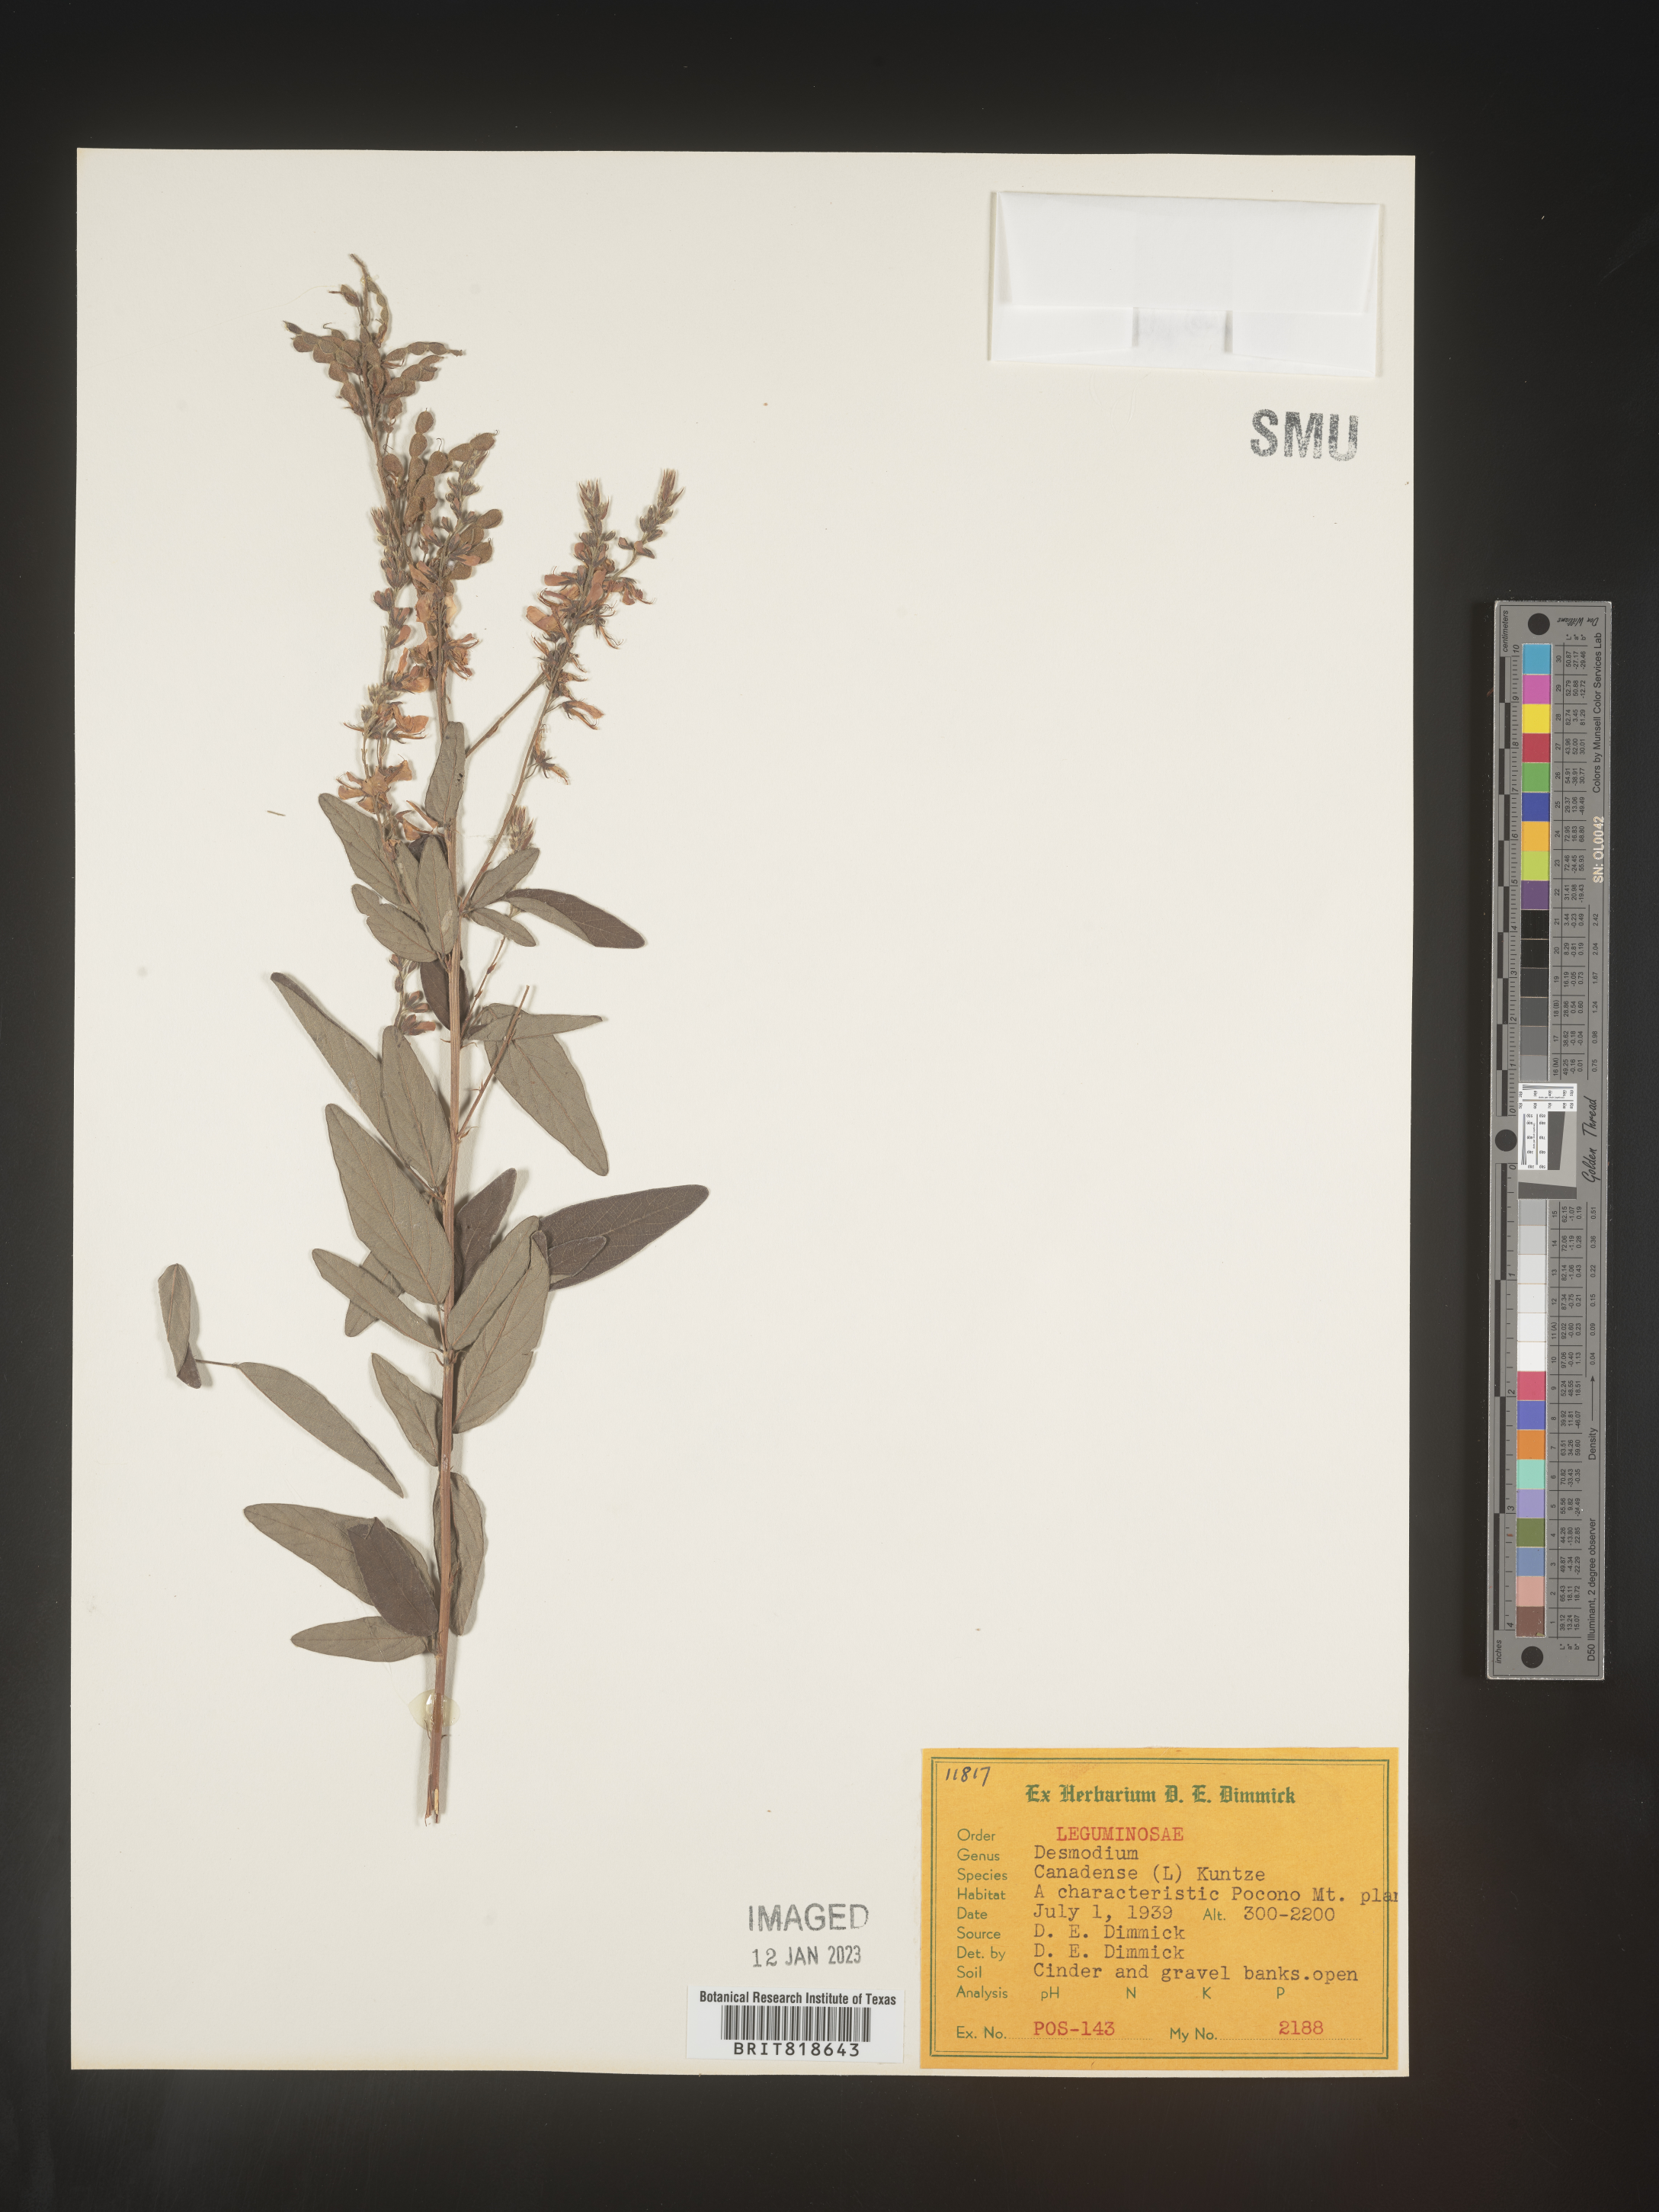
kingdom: Plantae
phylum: Tracheophyta
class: Magnoliopsida
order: Fabales
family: Fabaceae
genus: Desmodium
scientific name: Desmodium canadense
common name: Canada tick-trefoil
